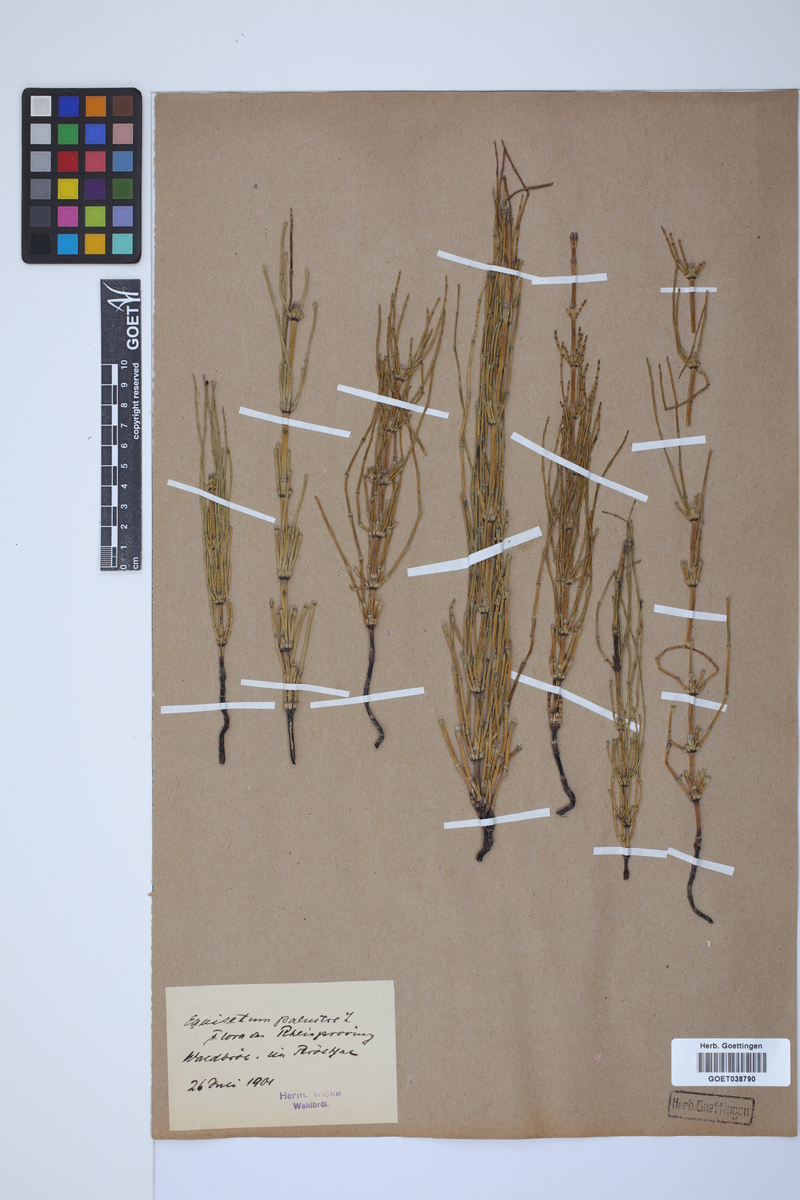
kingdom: Plantae
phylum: Tracheophyta
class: Polypodiopsida
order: Equisetales
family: Equisetaceae
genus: Equisetum
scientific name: Equisetum palustre
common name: Marsh horsetail
